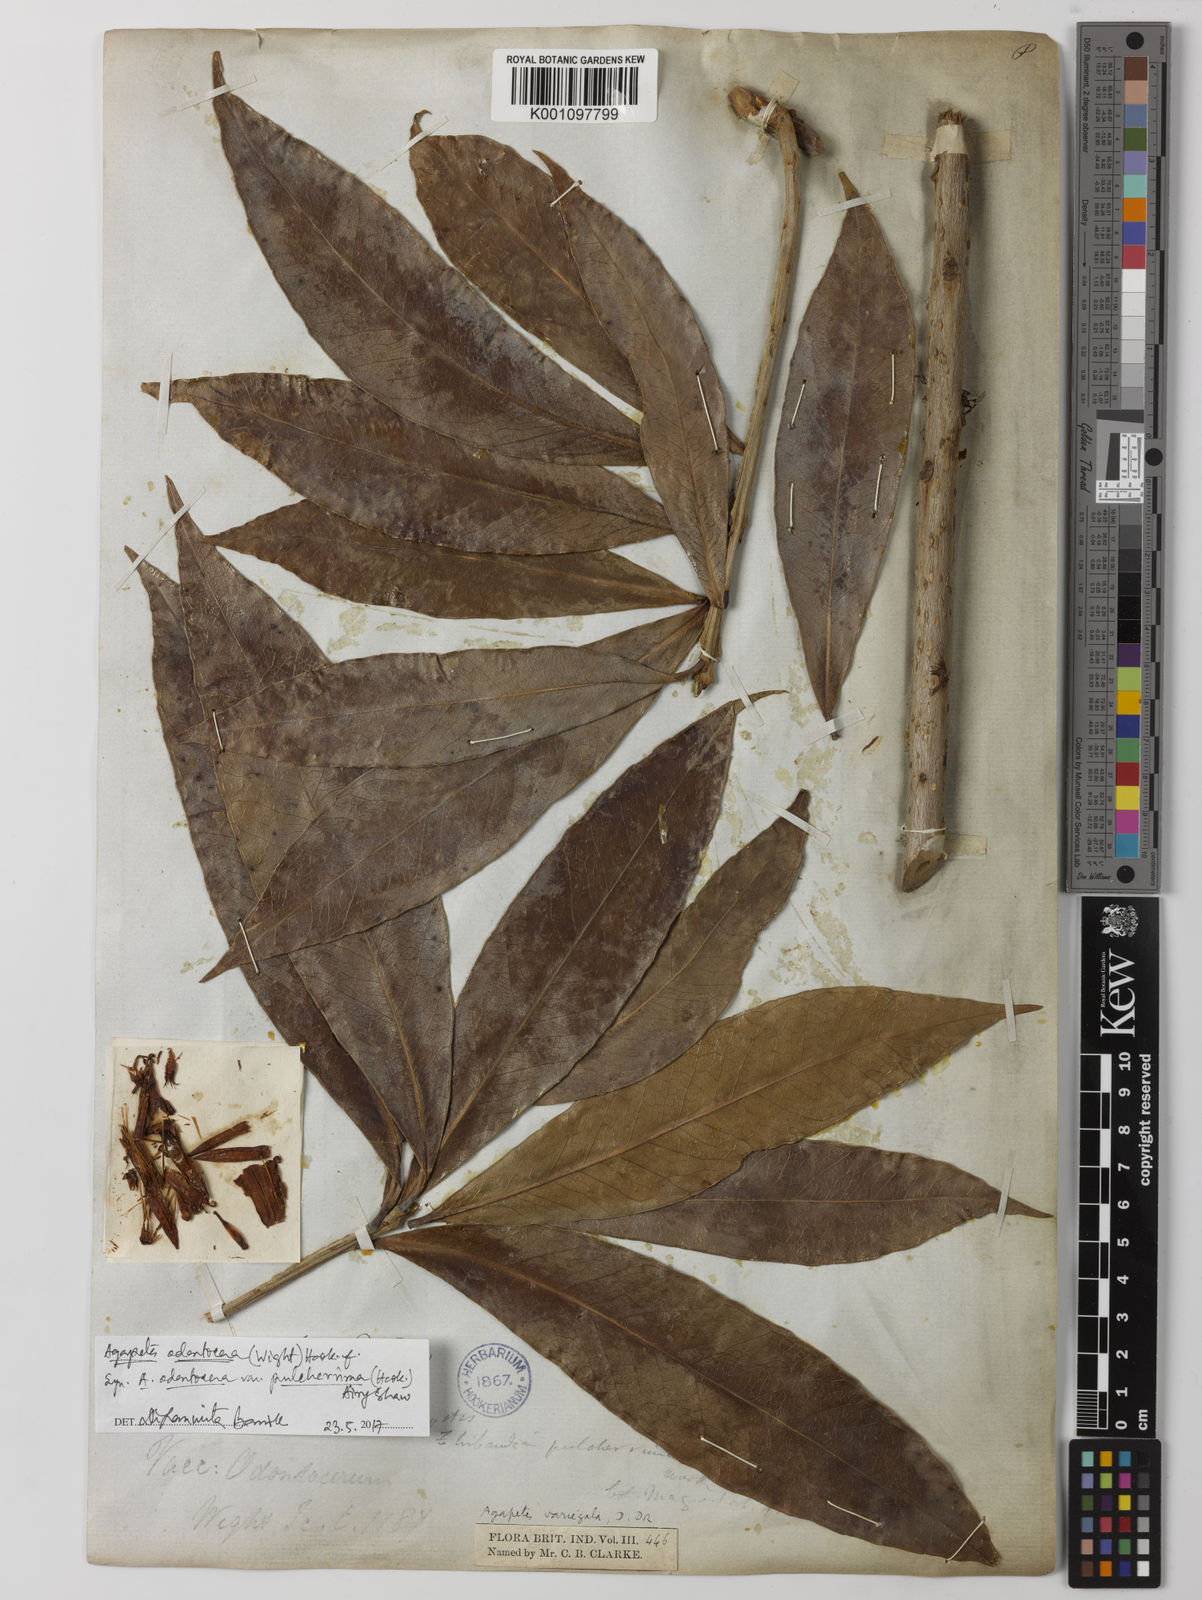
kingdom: Plantae
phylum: Tracheophyta
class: Magnoliopsida
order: Ericales
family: Ericaceae
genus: Agapetes
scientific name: Agapetes odontocera
